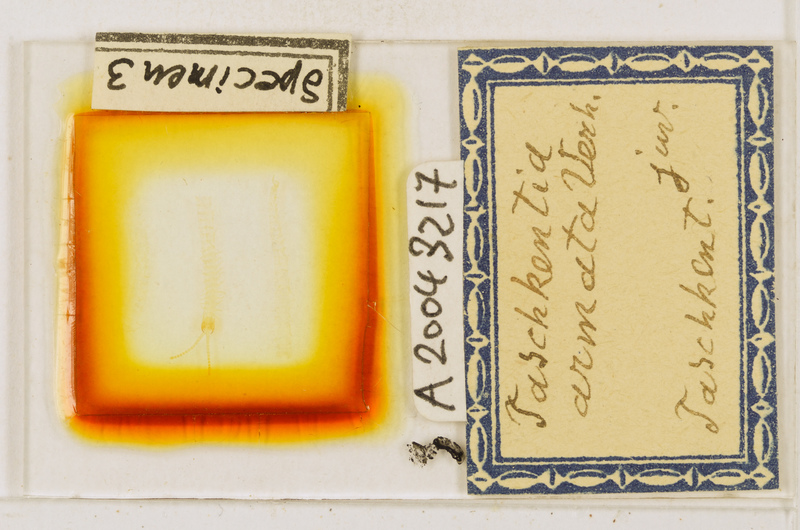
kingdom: Animalia
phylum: Arthropoda
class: Chilopoda
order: Geophilomorpha
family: Geophilidae
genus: Taschkentia
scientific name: Taschkentia parthorum
